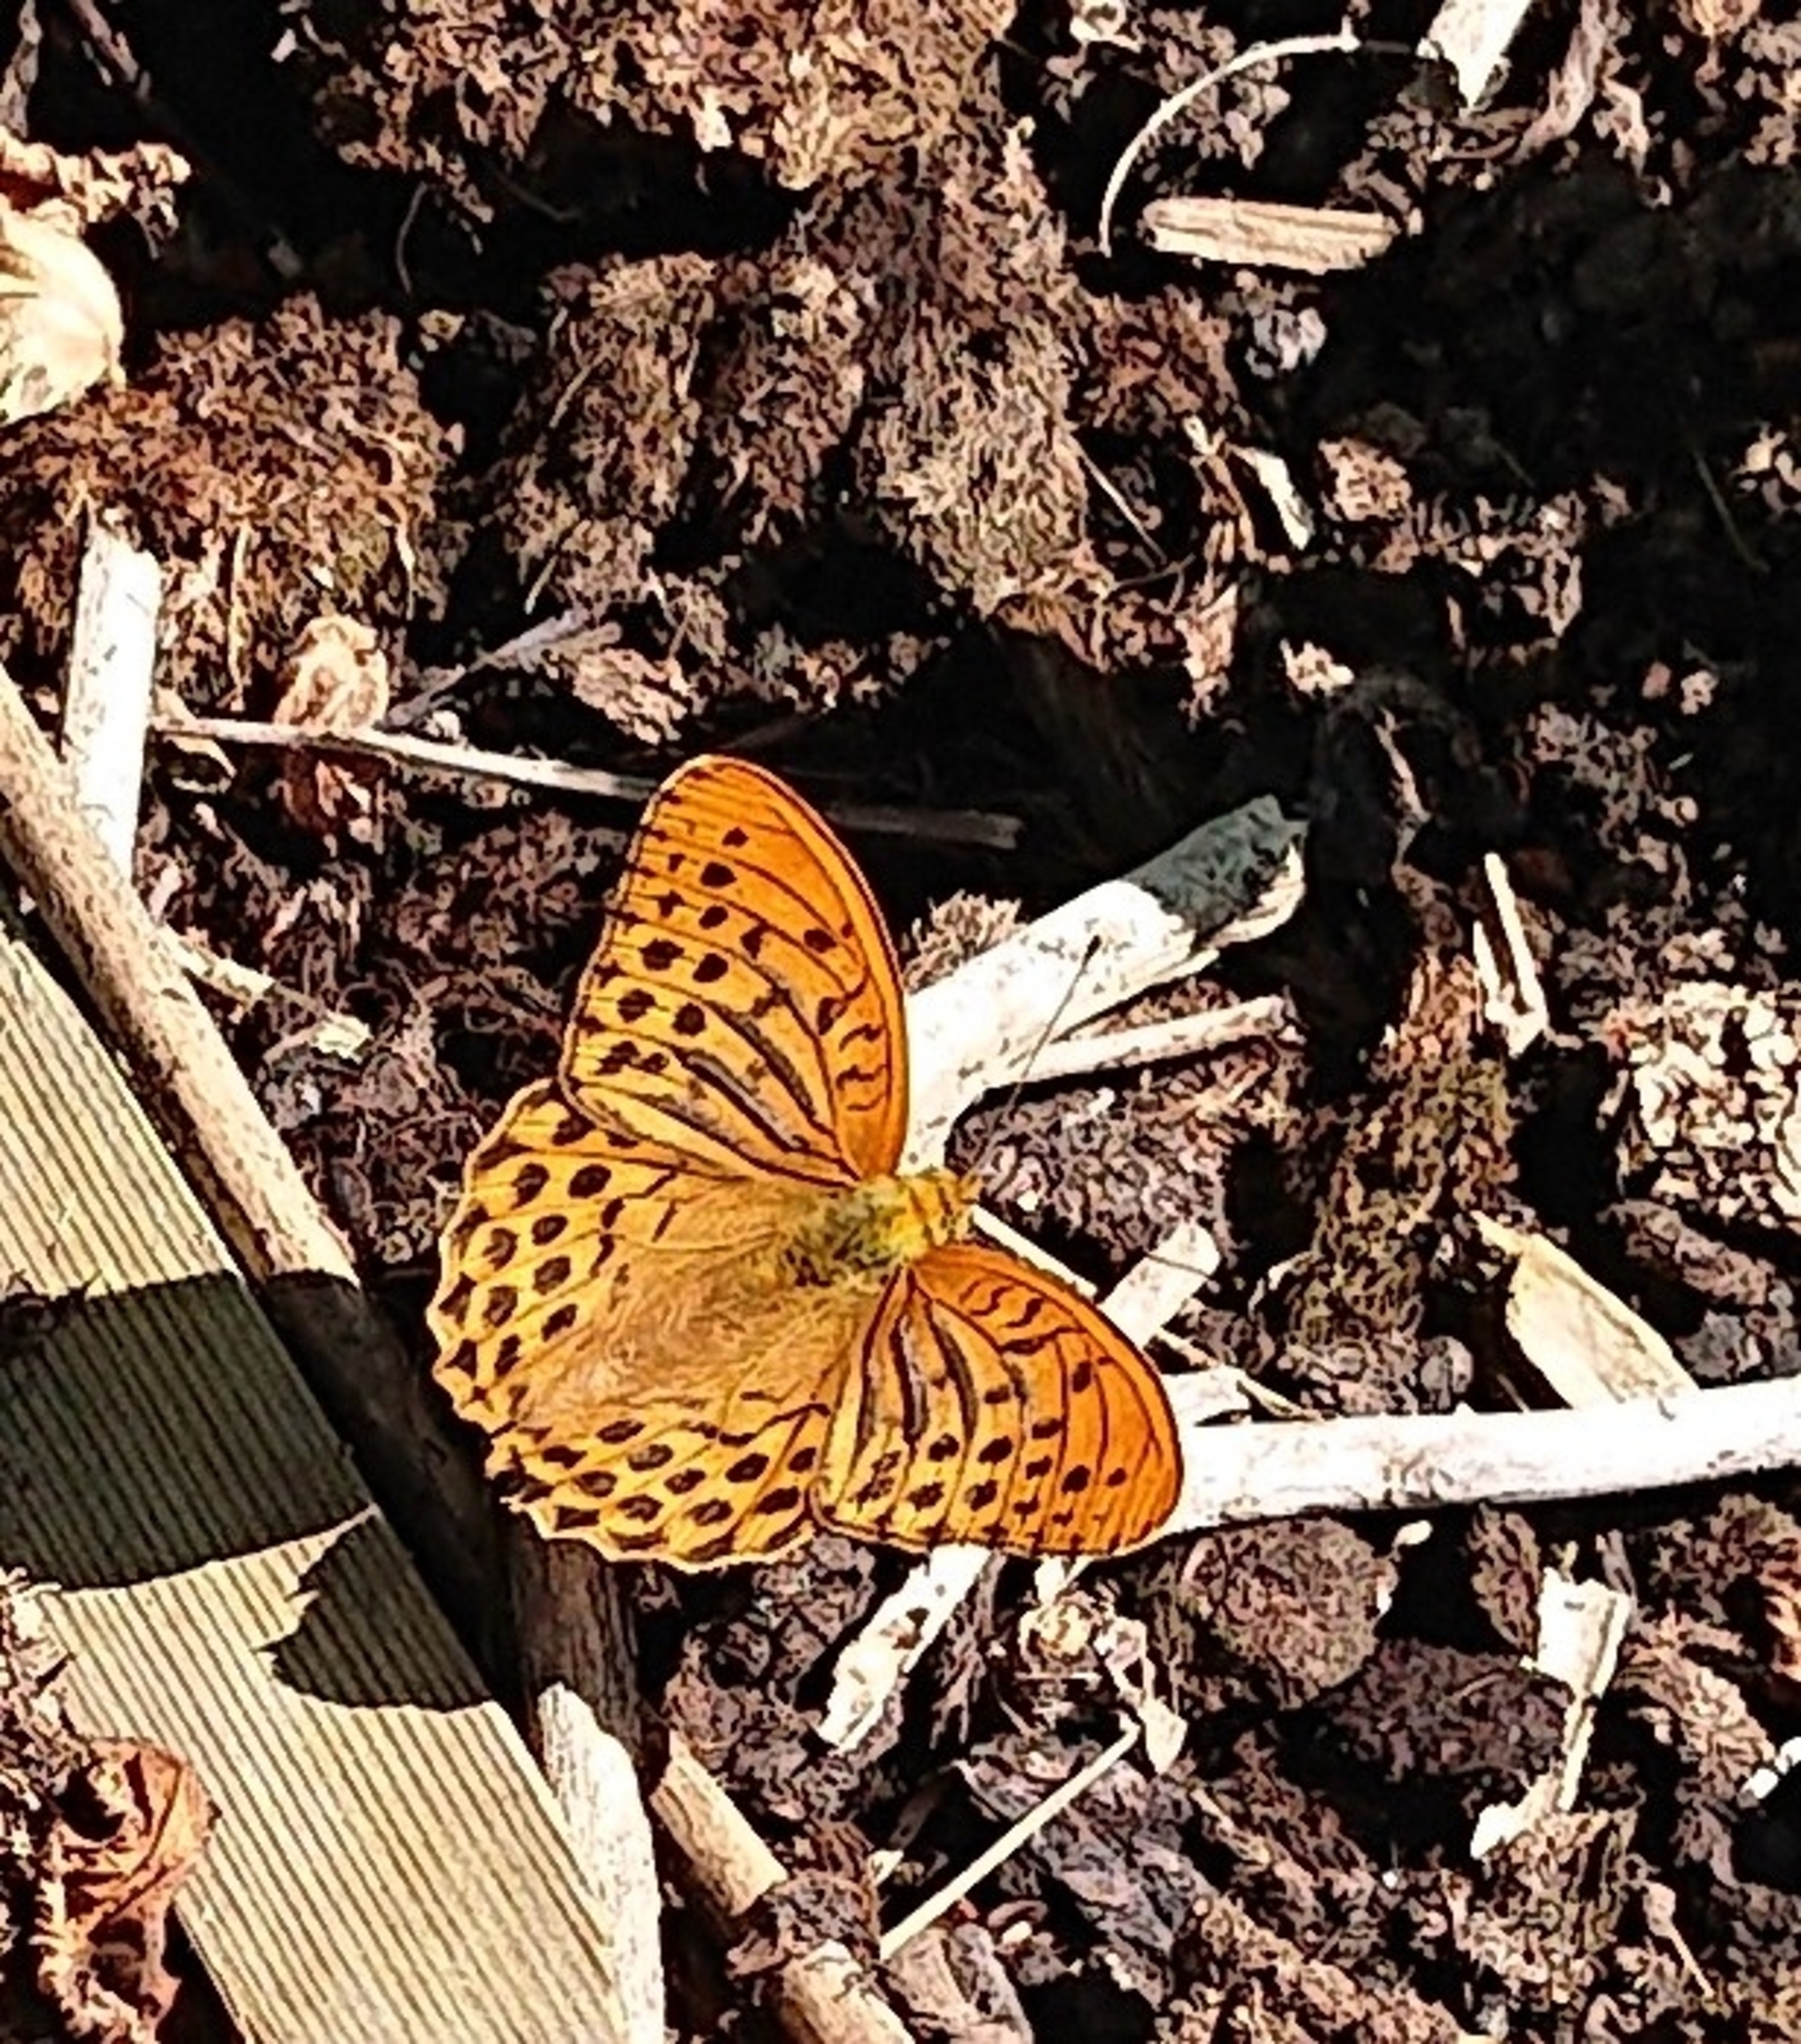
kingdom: Animalia
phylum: Arthropoda
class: Insecta
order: Lepidoptera
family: Nymphalidae
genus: Argynnis
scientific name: Argynnis paphia
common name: Kejserkåbe
